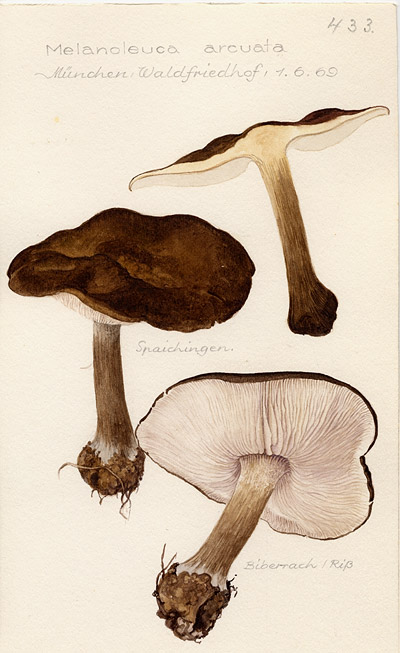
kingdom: Fungi
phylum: Basidiomycota
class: Agaricomycetes
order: Agaricales
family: Tricholomataceae
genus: Melanoleuca
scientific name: Melanoleuca arcuata
